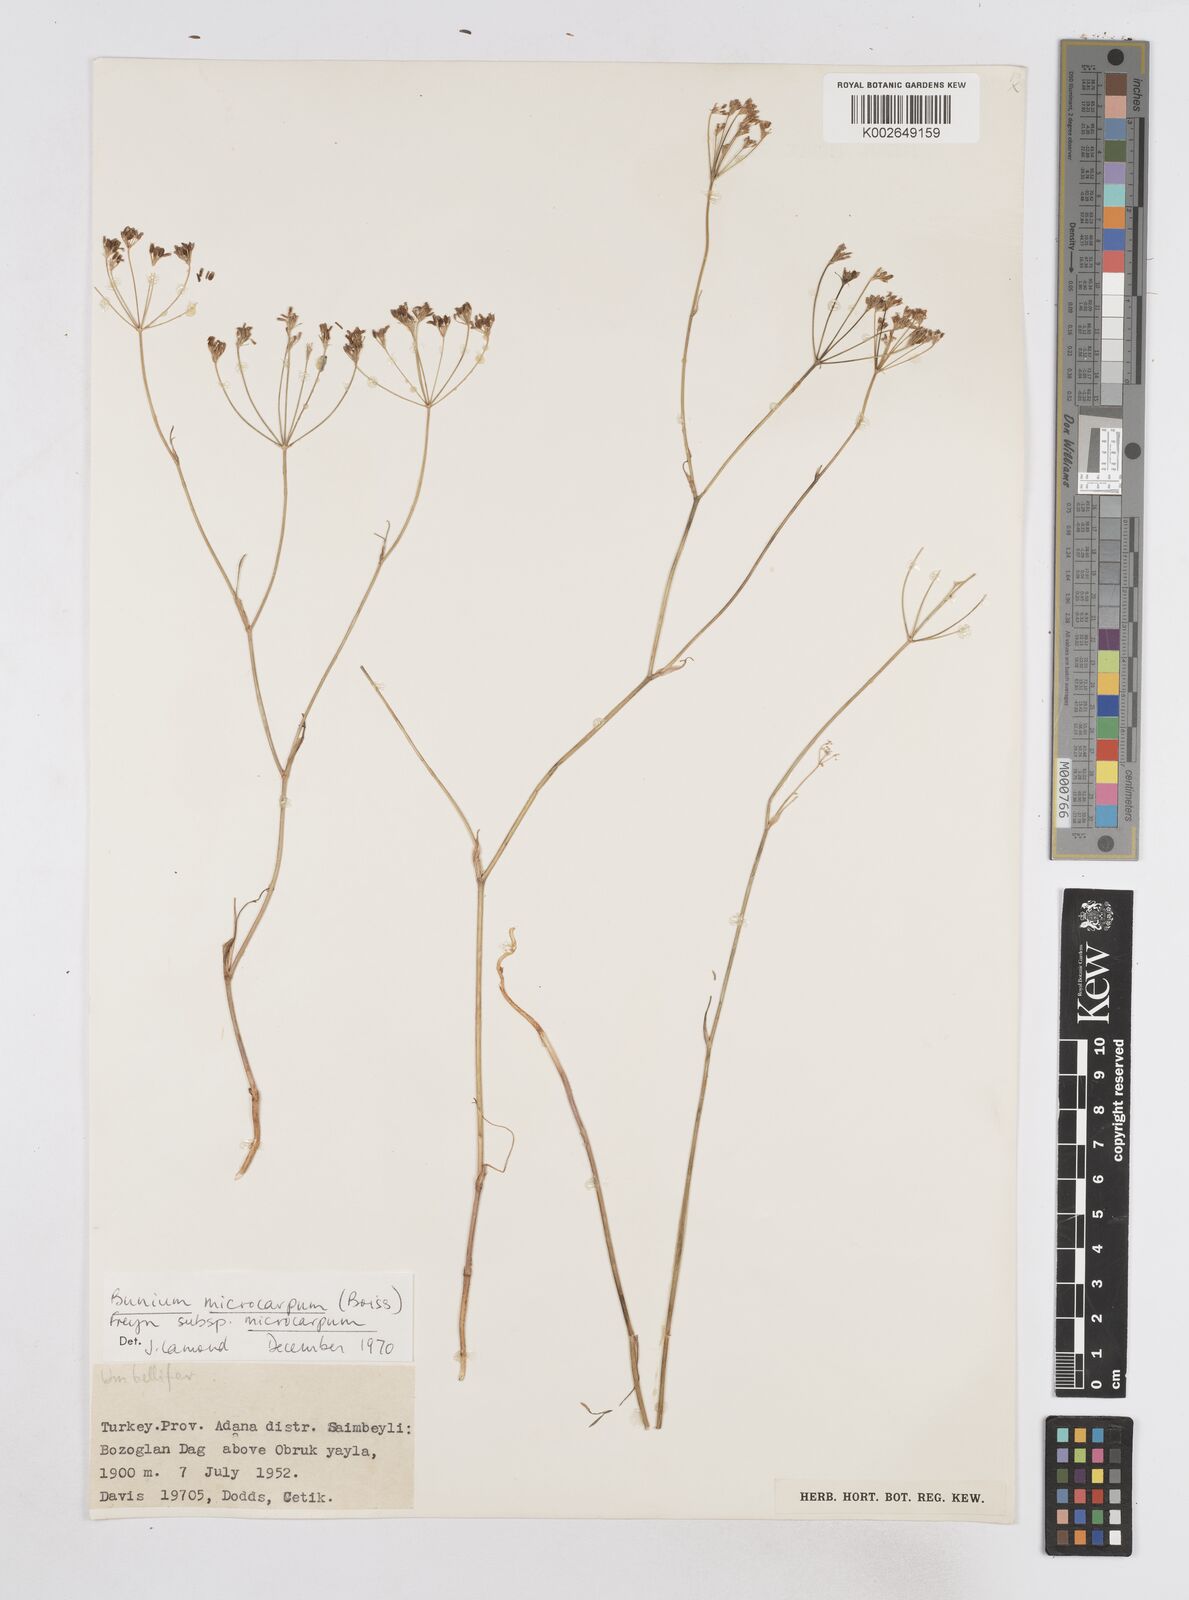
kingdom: Plantae
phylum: Tracheophyta
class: Magnoliopsida
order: Apiales
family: Apiaceae
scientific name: Apiaceae
